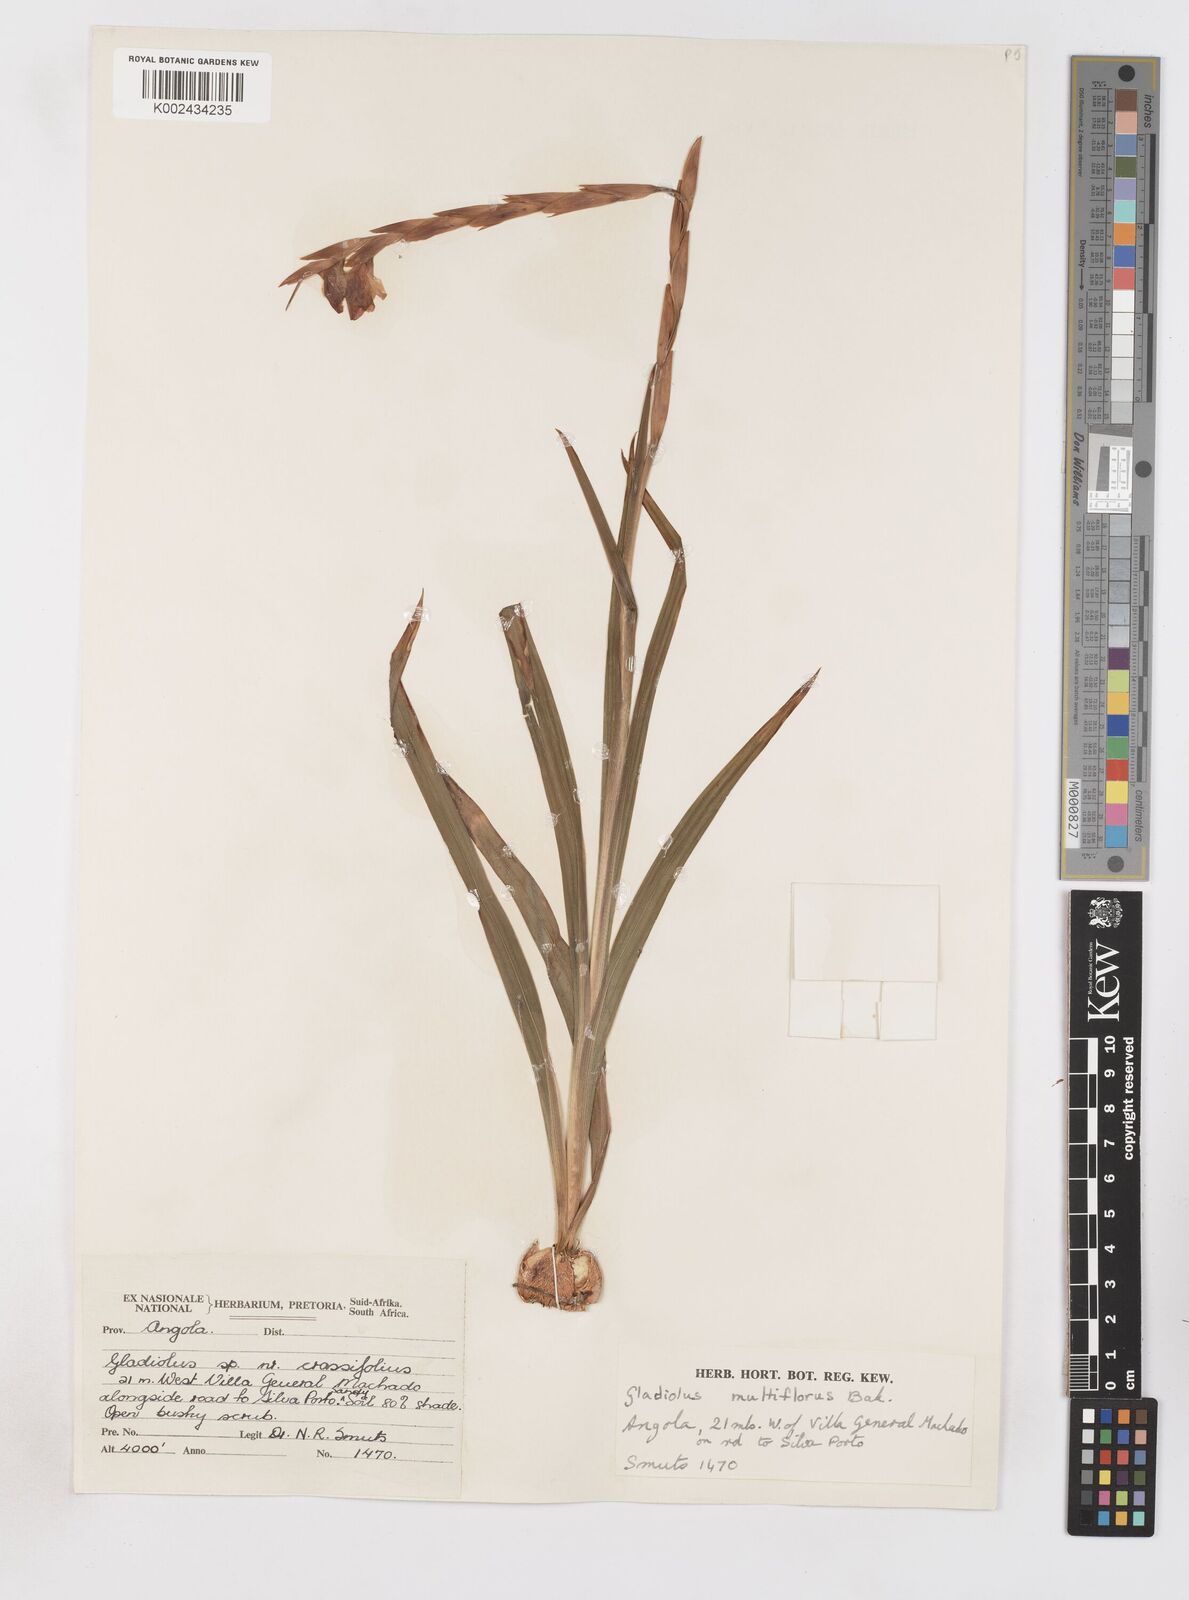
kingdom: Plantae
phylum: Tracheophyta
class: Liliopsida
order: Asparagales
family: Iridaceae
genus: Gladiolus
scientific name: Gladiolus gregarius
